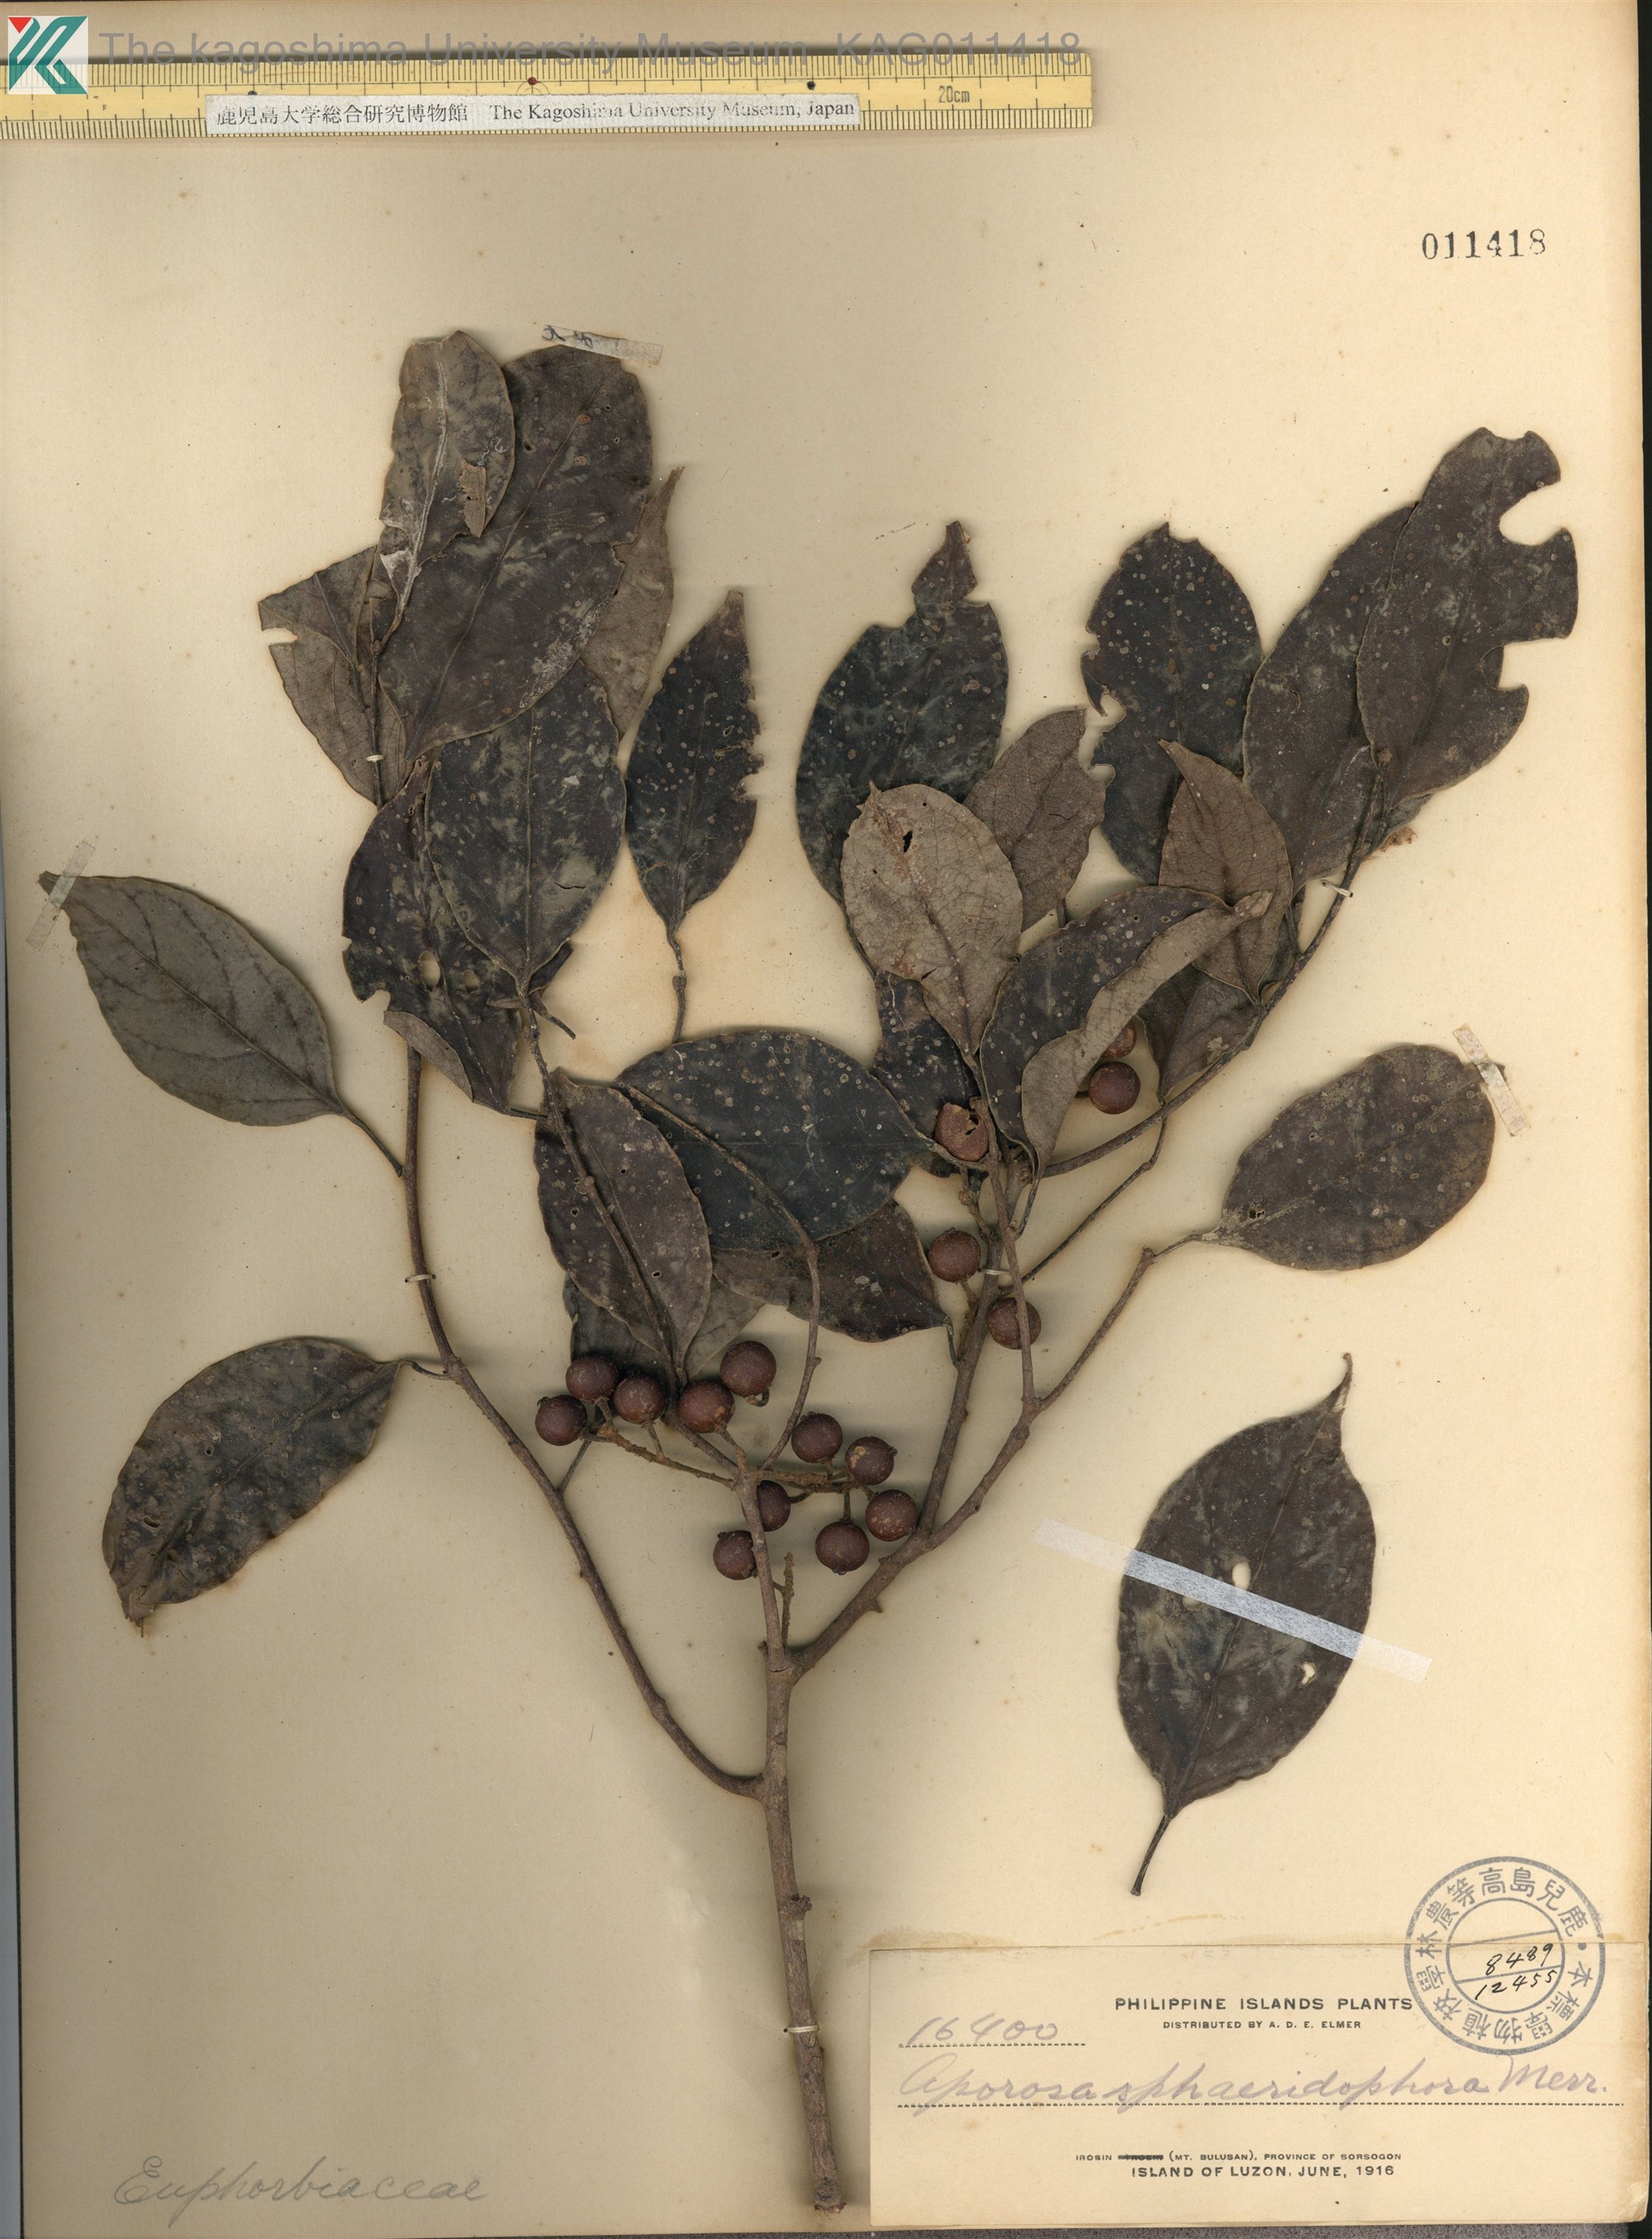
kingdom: Plantae
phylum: Tracheophyta
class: Magnoliopsida
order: Malpighiales
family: Phyllanthaceae
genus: Aporosa
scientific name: Aporosa
